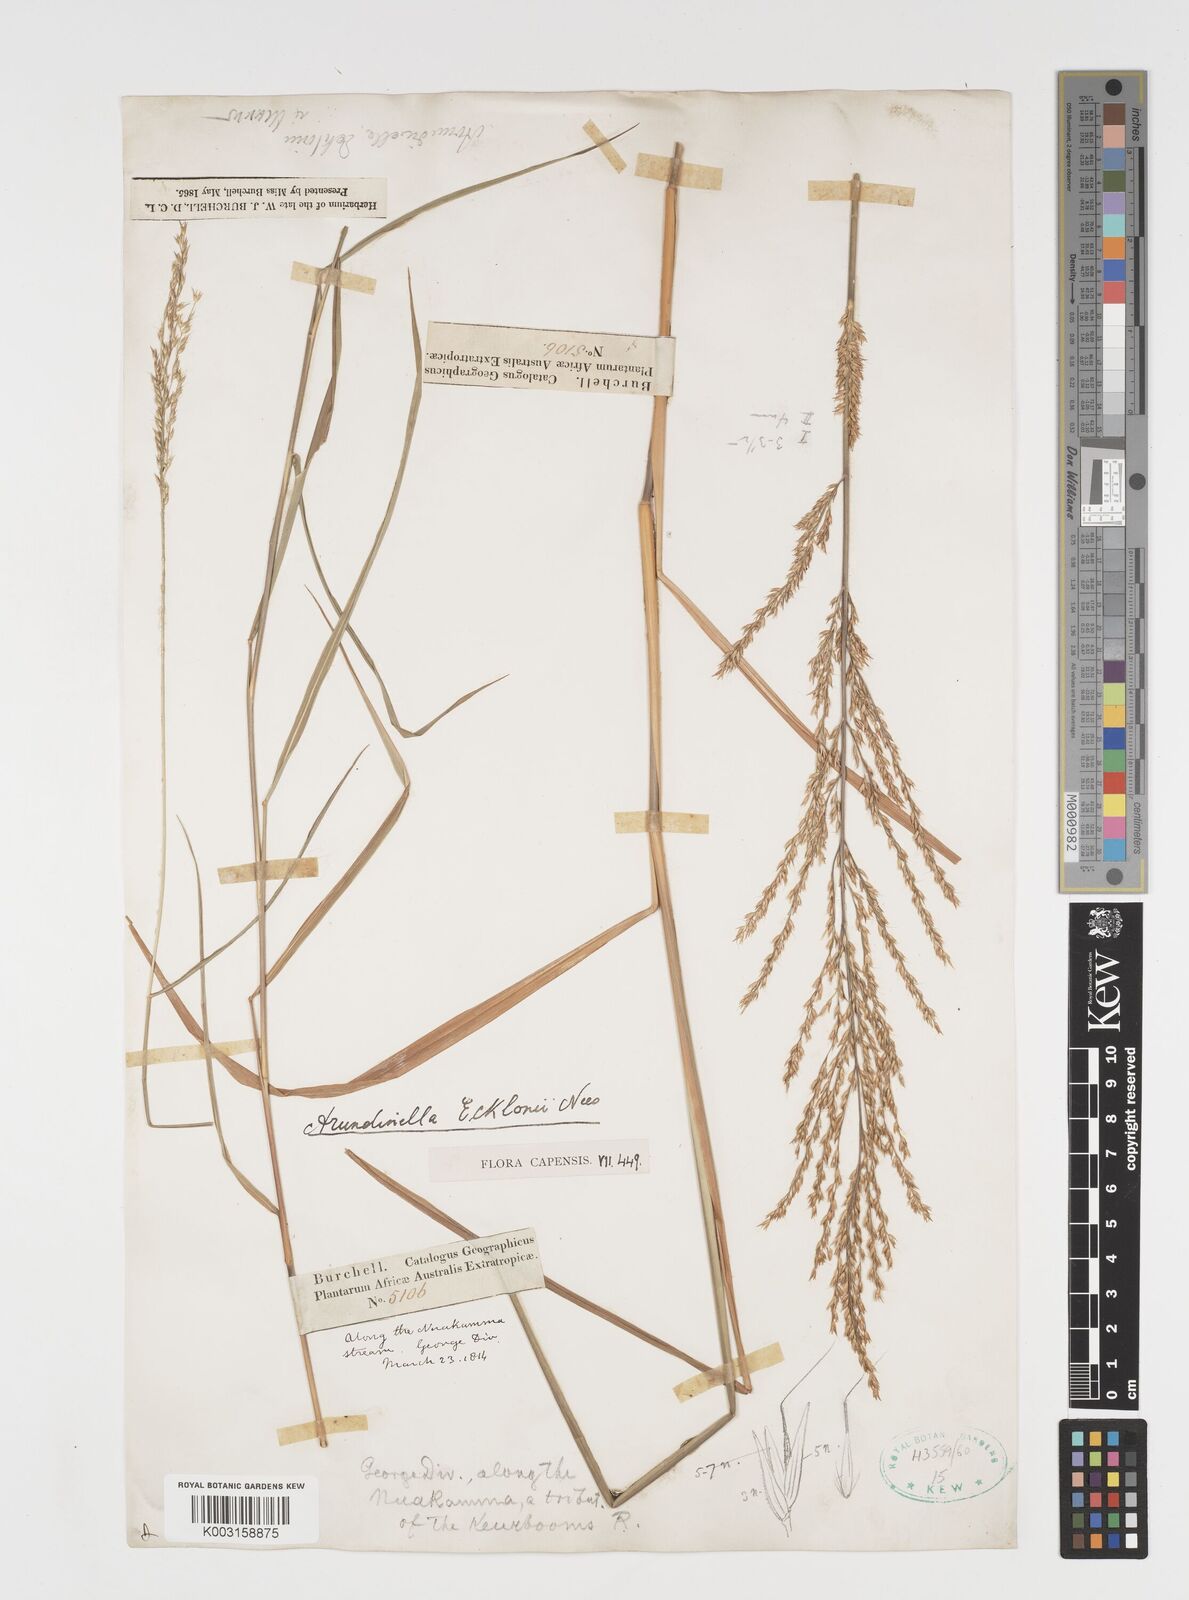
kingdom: Plantae
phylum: Tracheophyta
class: Liliopsida
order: Poales
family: Poaceae
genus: Arundinella
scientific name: Arundinella nepalensis
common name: Reed grass
